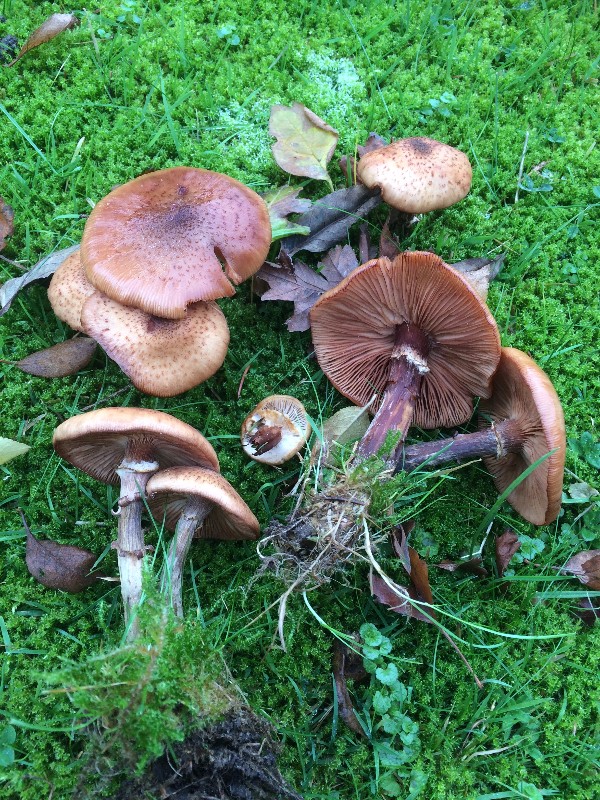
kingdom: Fungi
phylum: Basidiomycota
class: Agaricomycetes
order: Agaricales
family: Physalacriaceae
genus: Armillaria
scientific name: Armillaria ostoyae
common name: mørk honningsvamp
